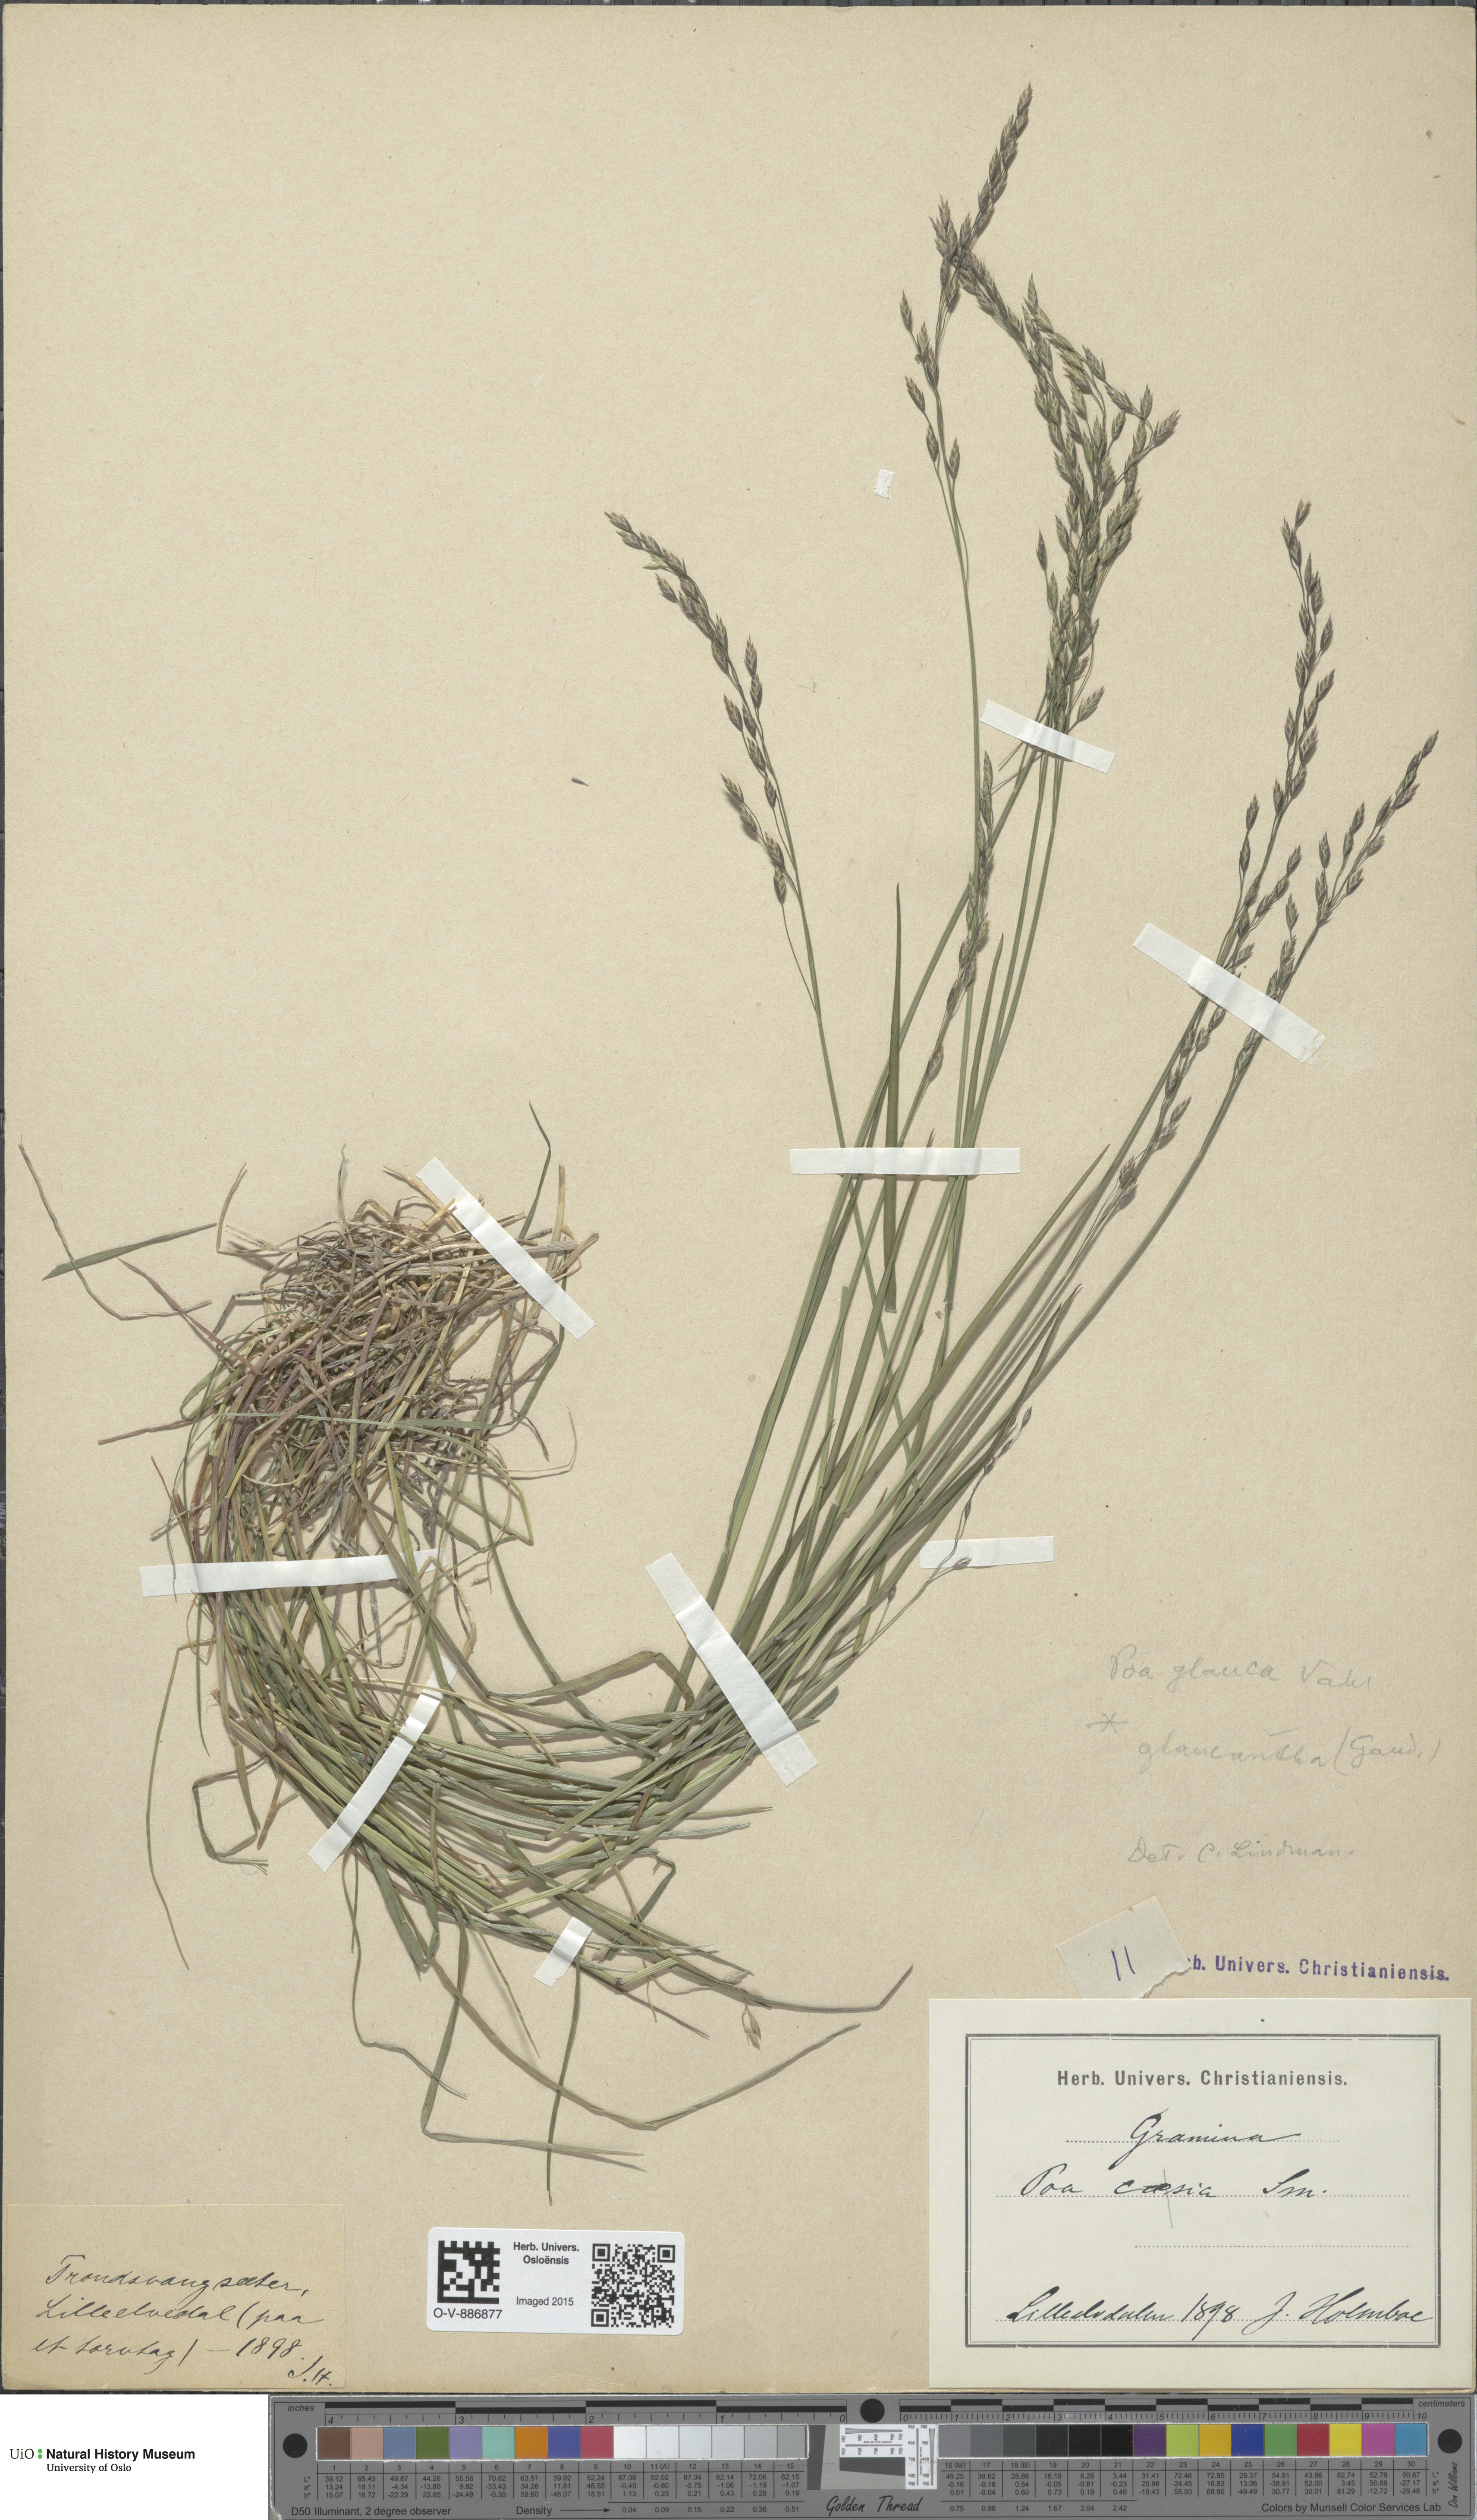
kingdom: Plantae
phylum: Tracheophyta
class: Liliopsida
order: Poales
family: Poaceae
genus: Poa
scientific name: Poa nemoralis
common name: Wood bluegrass
